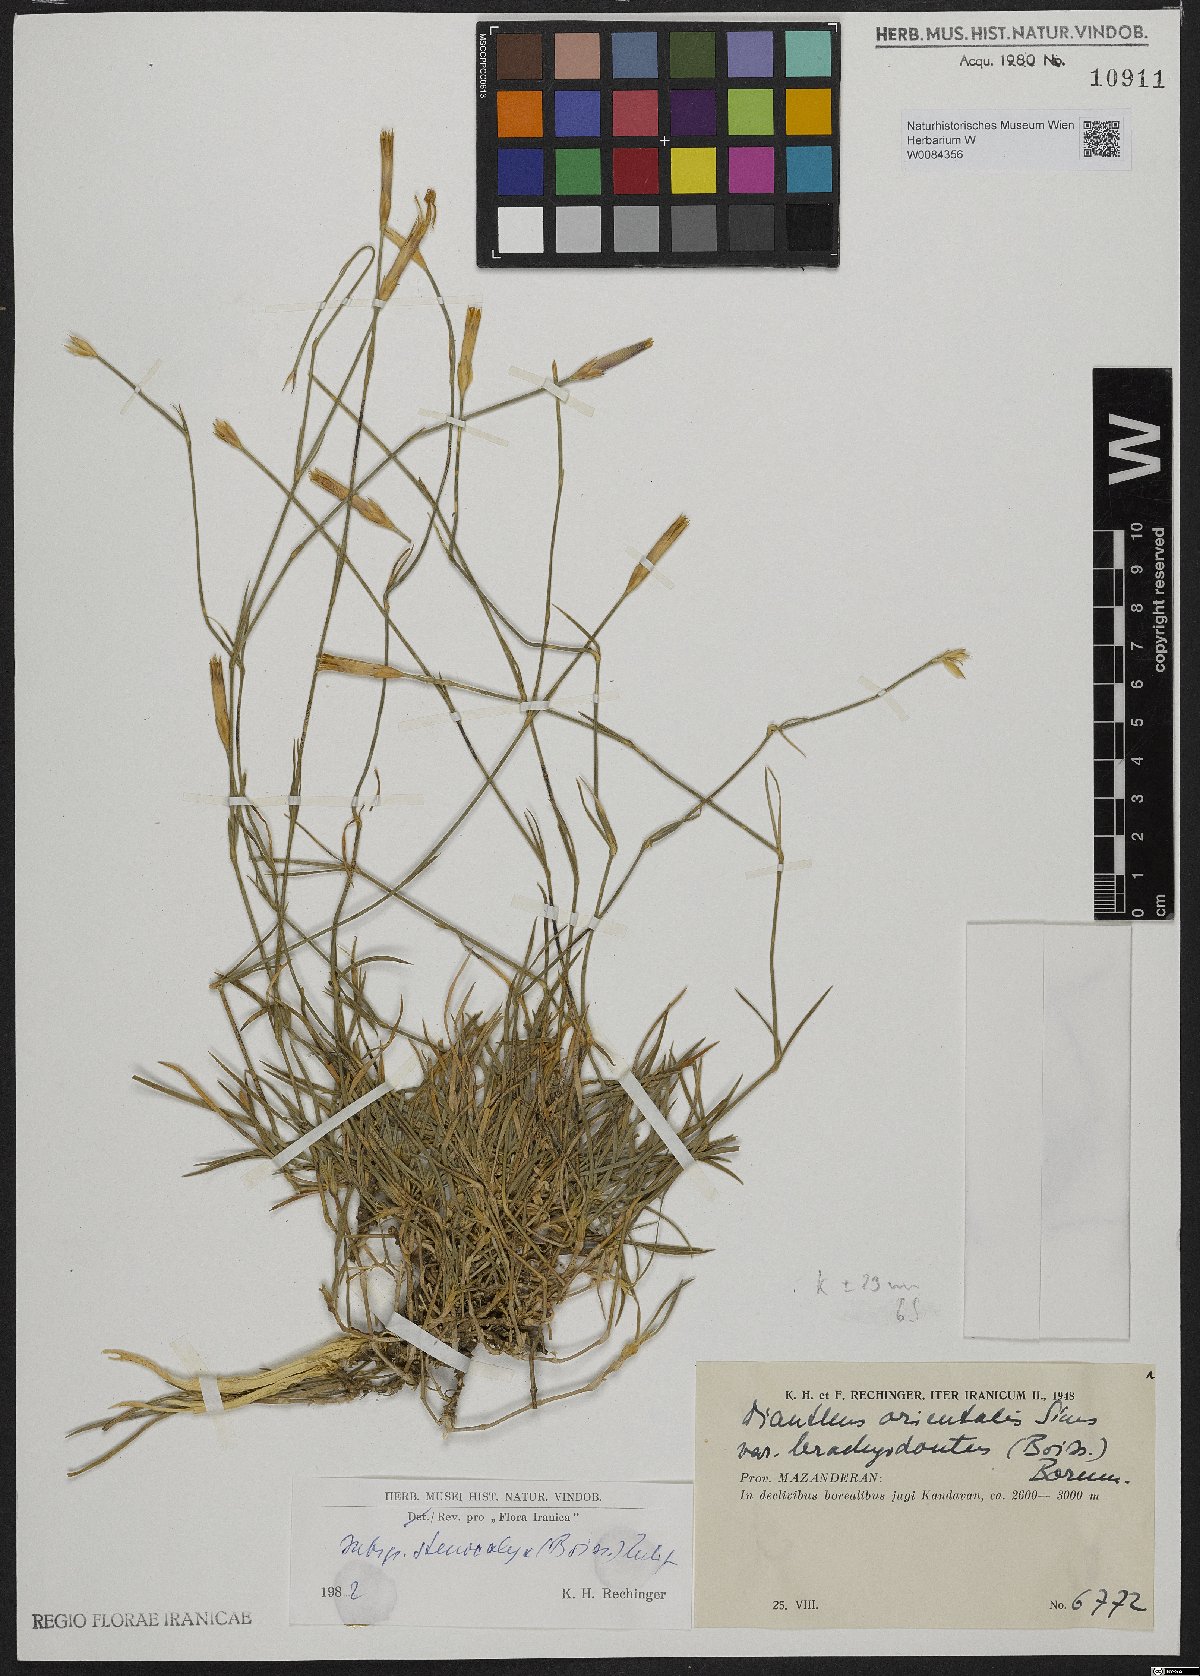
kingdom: Plantae
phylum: Tracheophyta
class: Magnoliopsida
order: Caryophyllales
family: Caryophyllaceae
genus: Dianthus
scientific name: Dianthus orientalis
